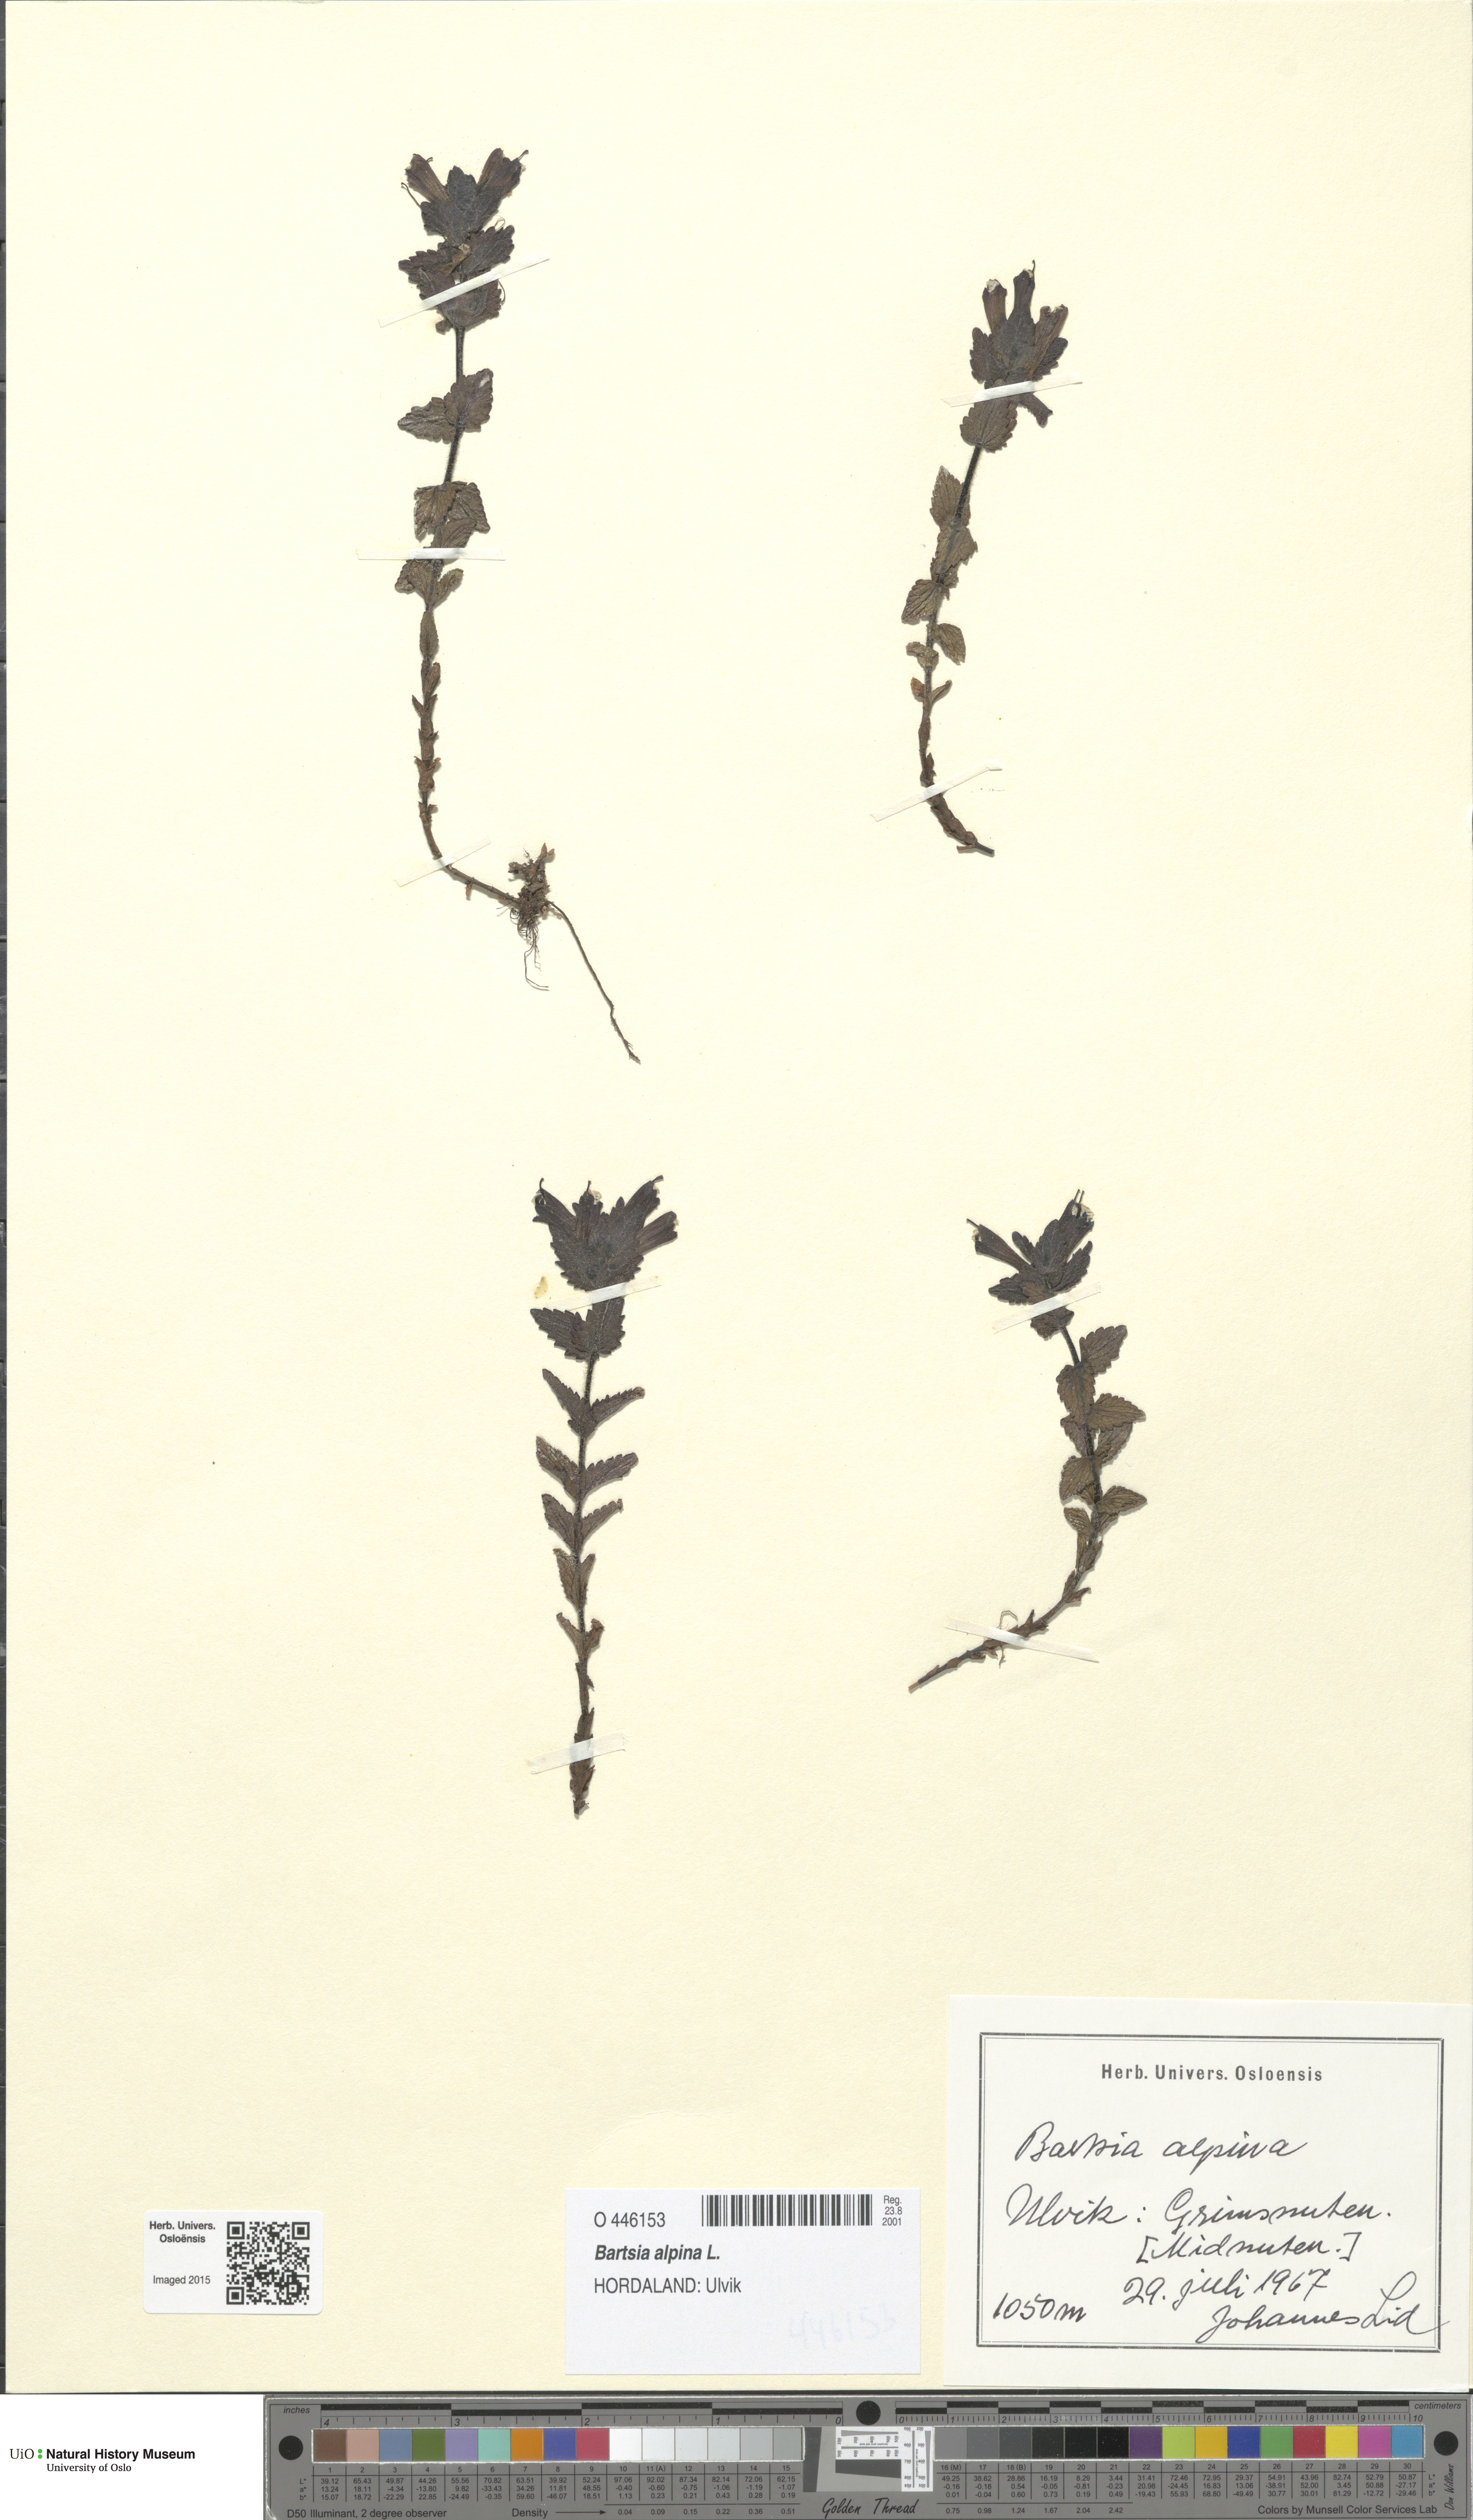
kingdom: Plantae
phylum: Tracheophyta
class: Magnoliopsida
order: Lamiales
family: Orobanchaceae
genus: Bartsia
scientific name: Bartsia alpina
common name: Alpine bartsia
